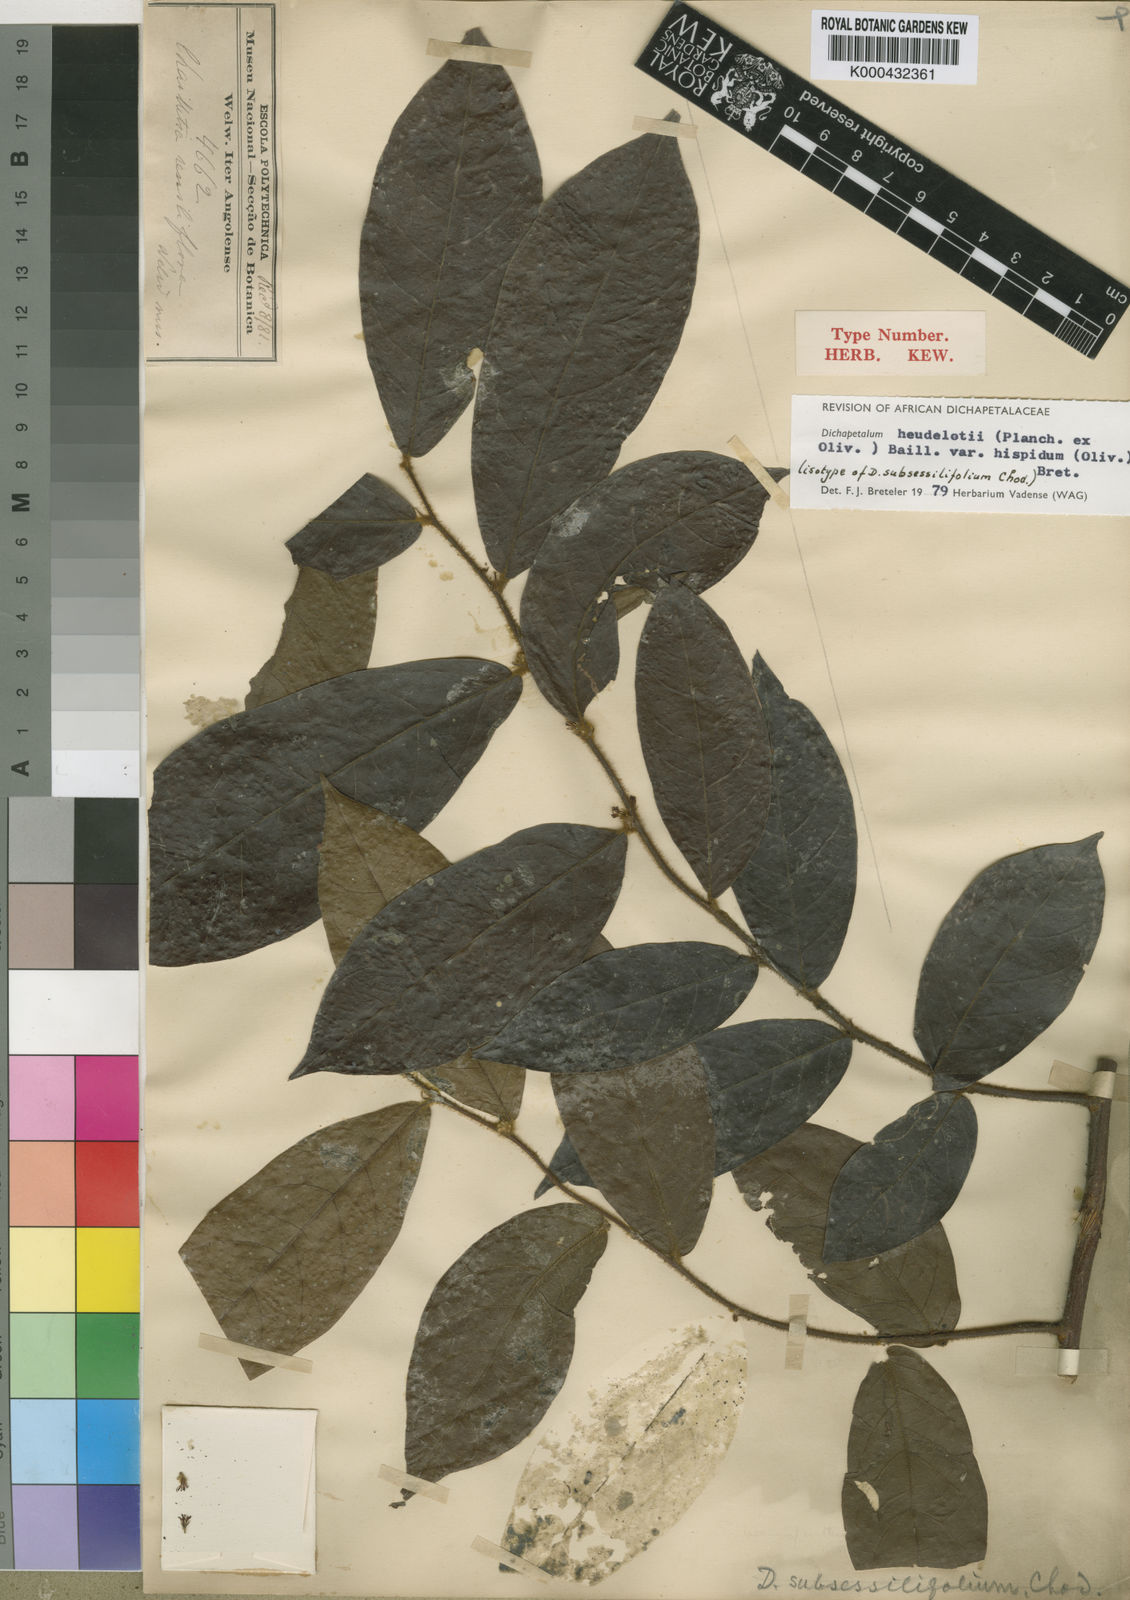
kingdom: Plantae
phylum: Tracheophyta
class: Magnoliopsida
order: Malpighiales
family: Dichapetalaceae
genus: Dichapetalum
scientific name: Dichapetalum heudelotii
